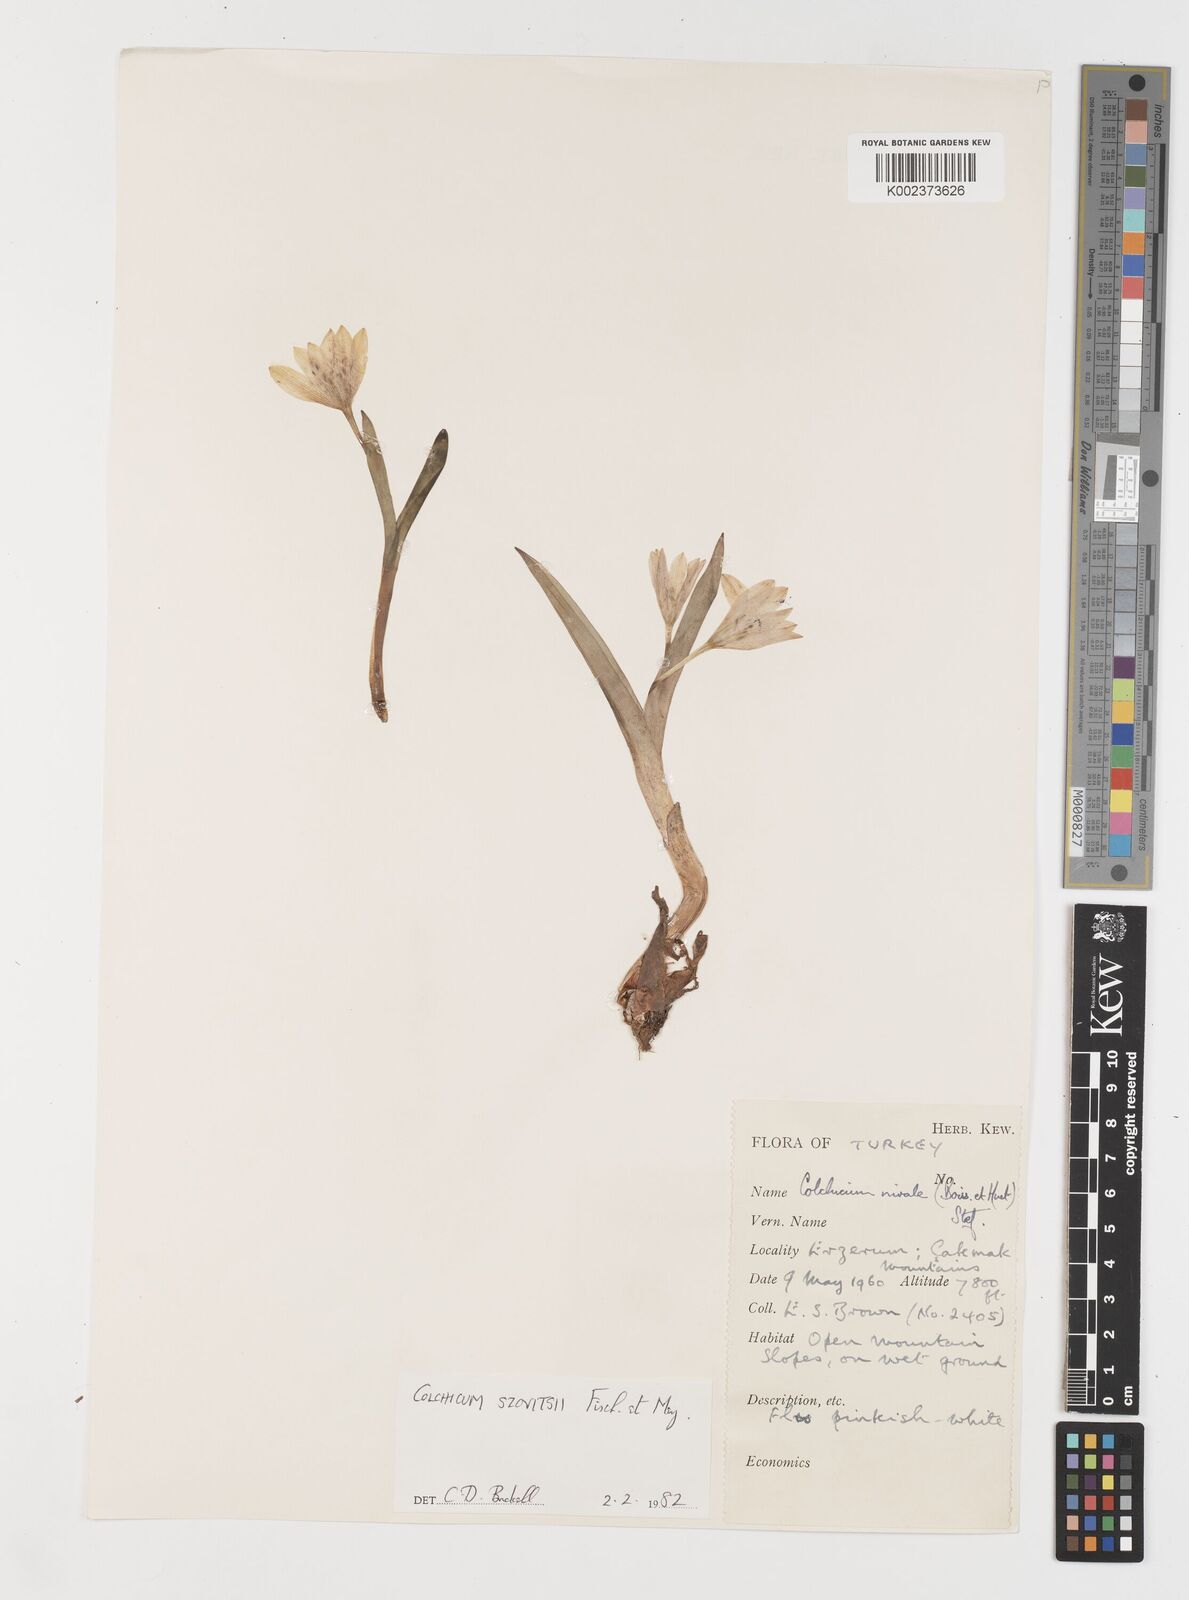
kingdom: Plantae
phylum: Tracheophyta
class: Liliopsida
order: Liliales
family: Colchicaceae
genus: Colchicum
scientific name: Colchicum szovitsii
